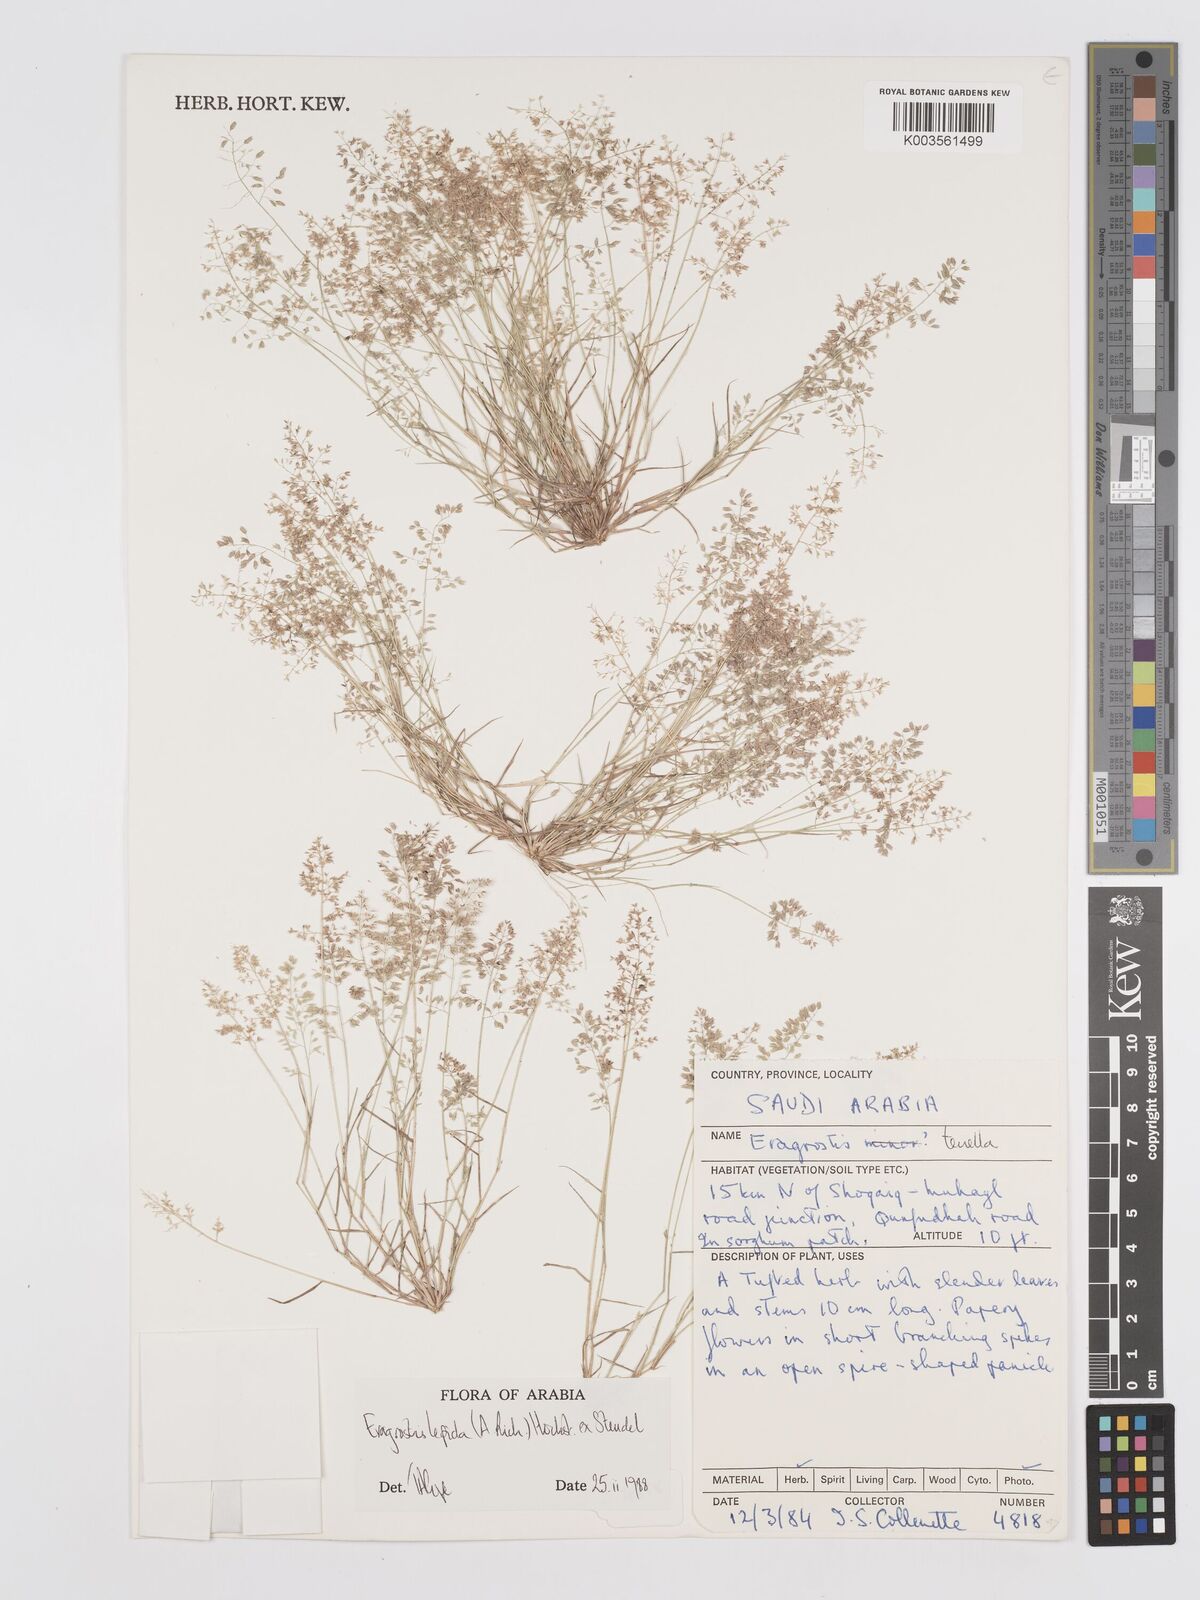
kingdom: Plantae
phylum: Tracheophyta
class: Liliopsida
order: Poales
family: Poaceae
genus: Eragrostis
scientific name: Eragrostis lepida
